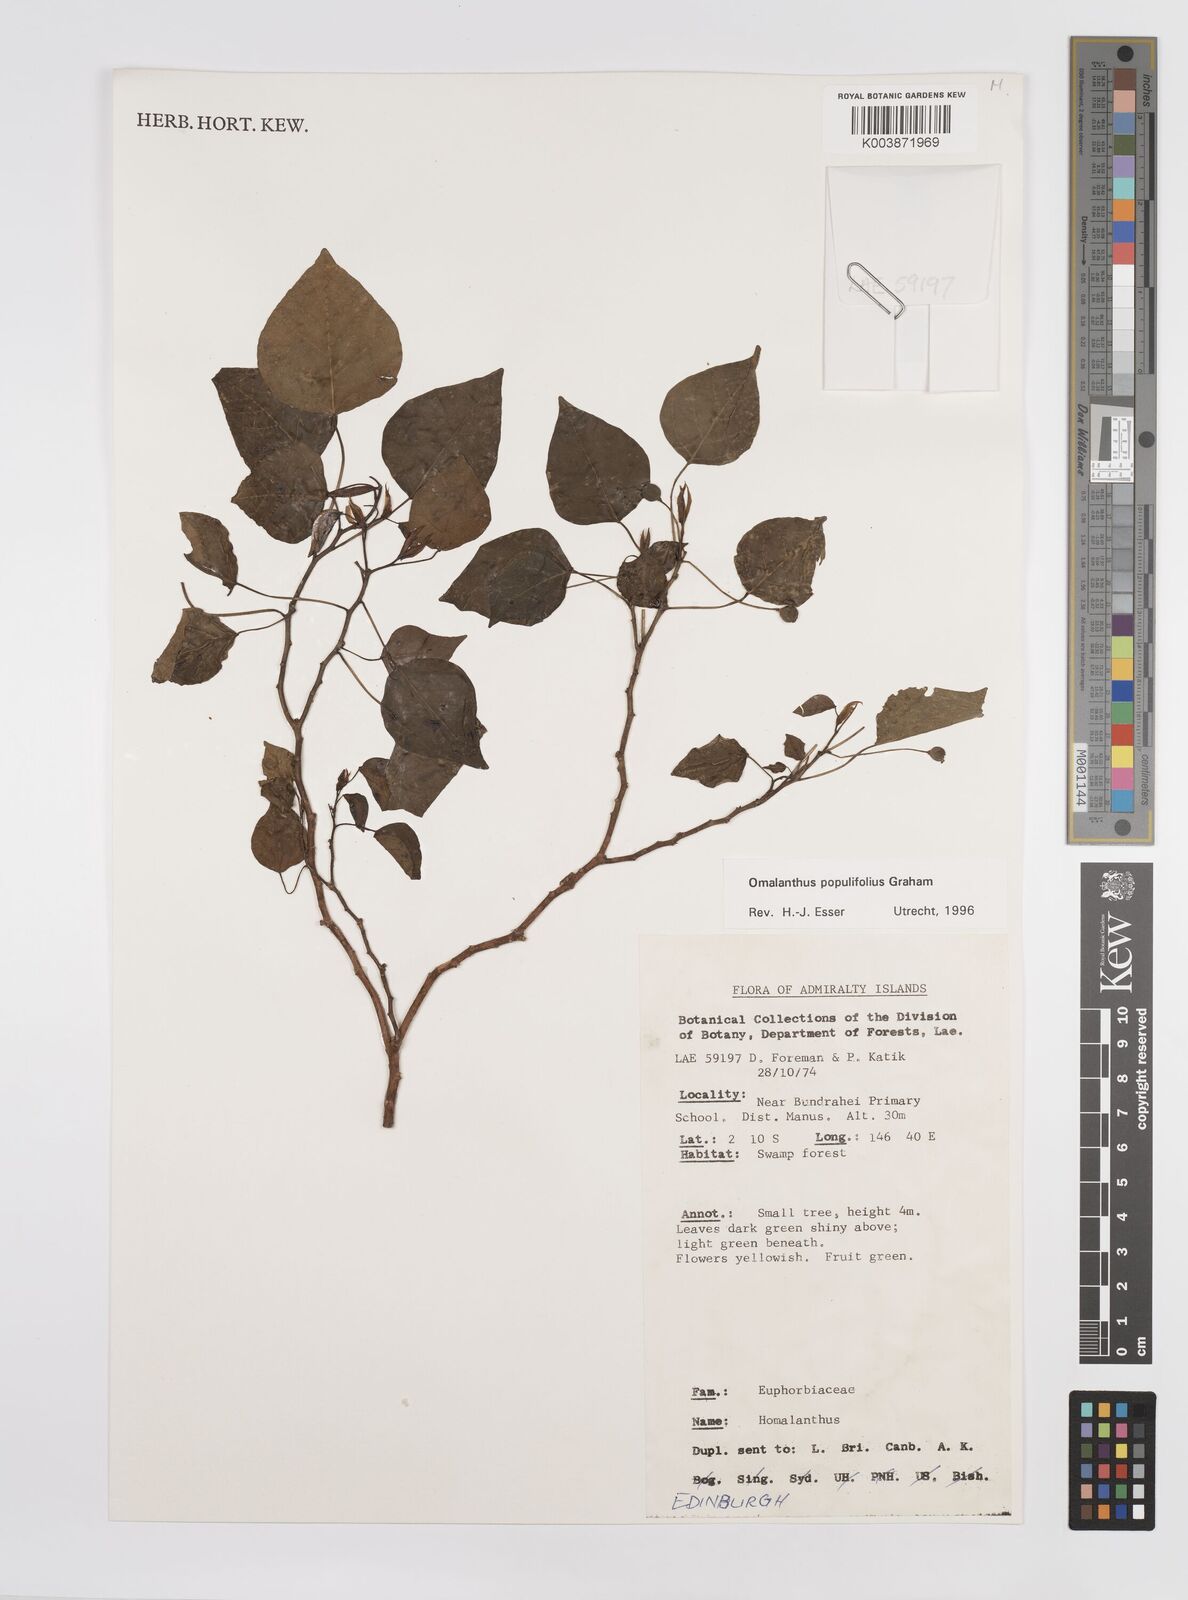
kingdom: Plantae
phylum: Tracheophyta
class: Magnoliopsida
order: Malpighiales
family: Euphorbiaceae
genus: Homalanthus
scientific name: Homalanthus populifolius
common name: Queensland poplar
